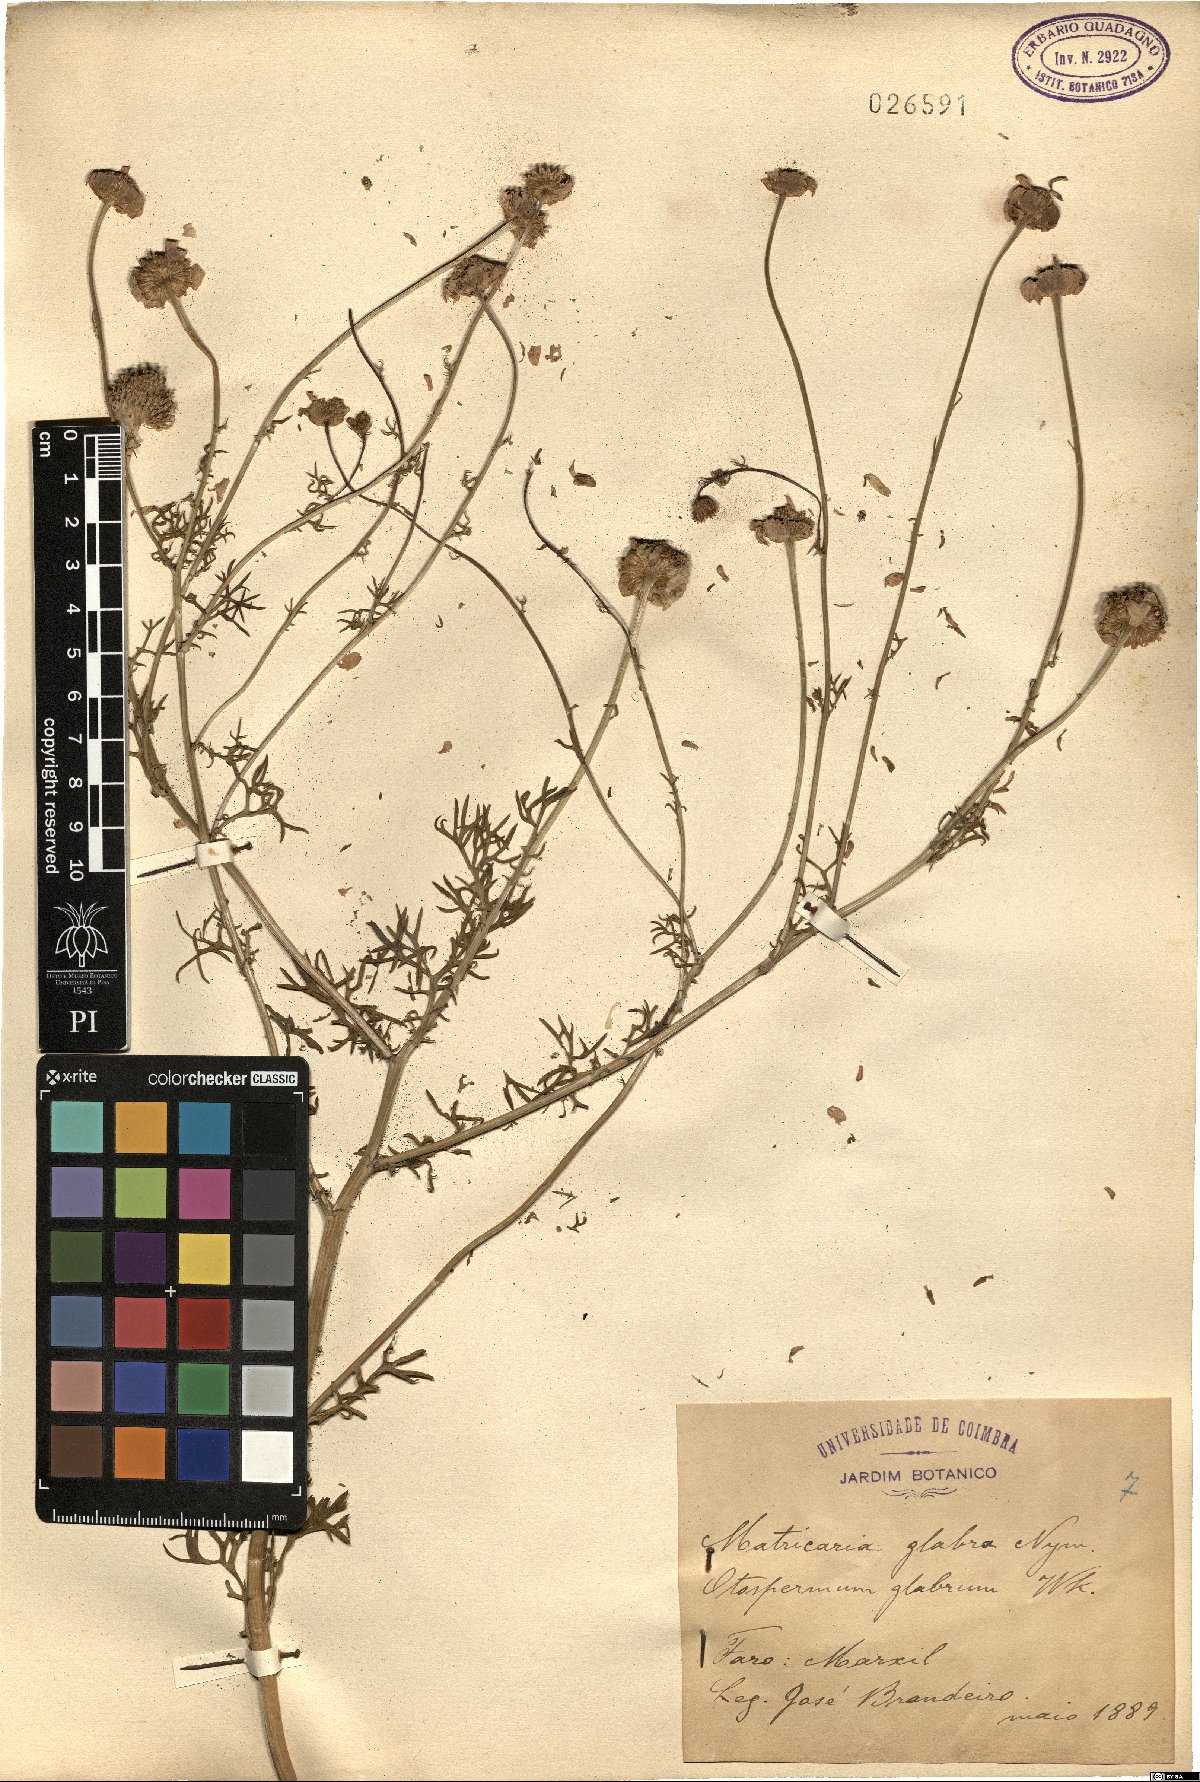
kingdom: Plantae
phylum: Tracheophyta
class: Magnoliopsida
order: Asterales
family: Asteraceae
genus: Otospermum
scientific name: Otospermum glabrum
